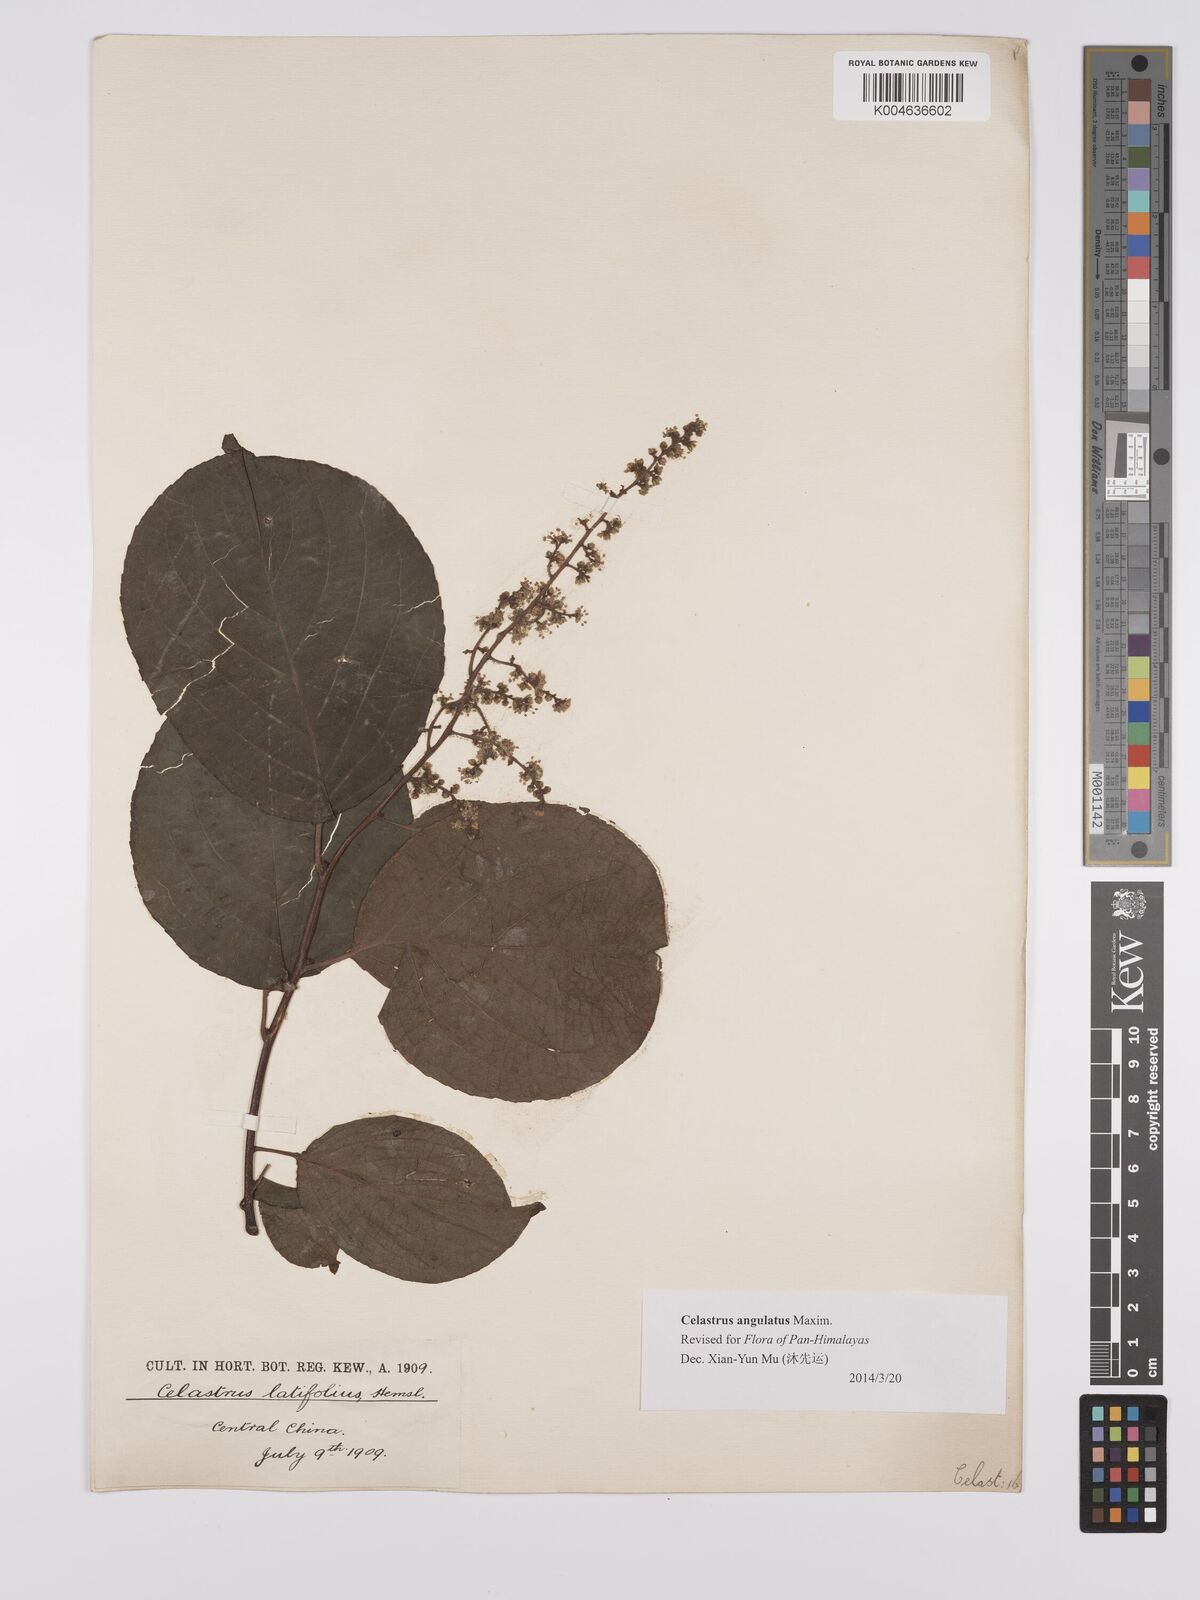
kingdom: Plantae
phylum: Tracheophyta
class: Magnoliopsida
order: Celastrales
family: Celastraceae
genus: Celastrus
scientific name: Celastrus angulatus
